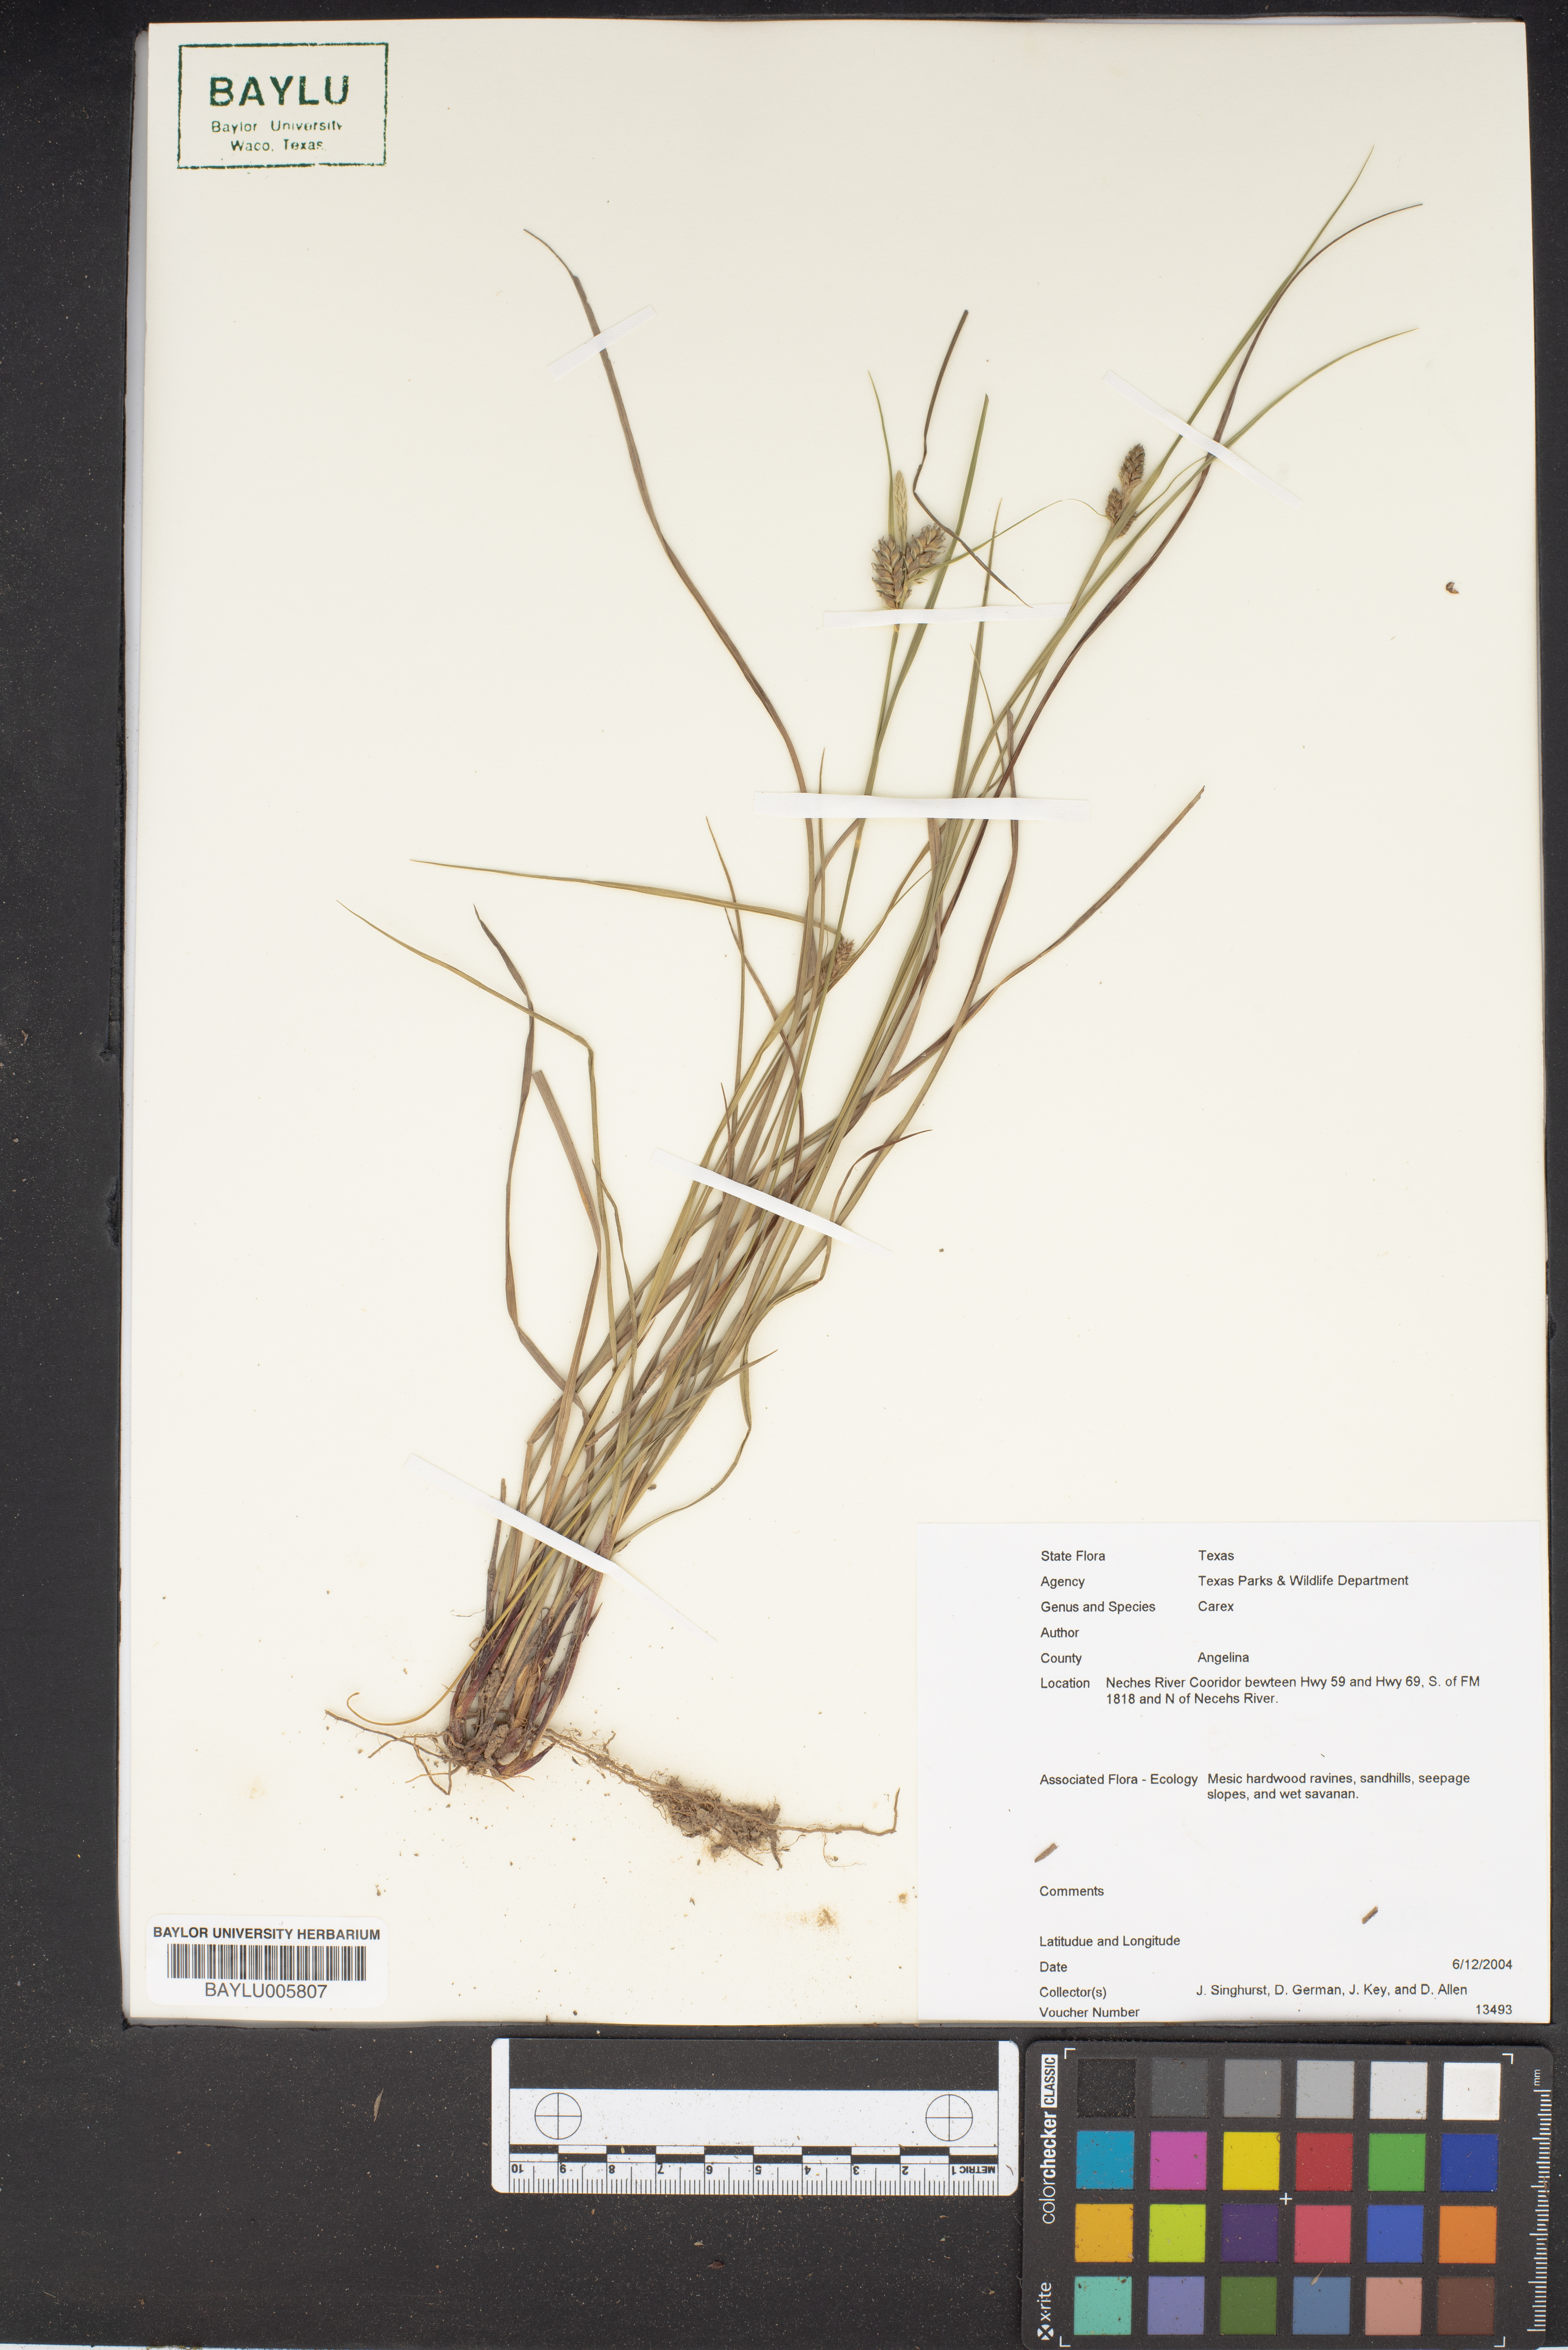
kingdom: Plantae
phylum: Tracheophyta
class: Liliopsida
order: Poales
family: Cyperaceae
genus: Carex
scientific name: Carex
